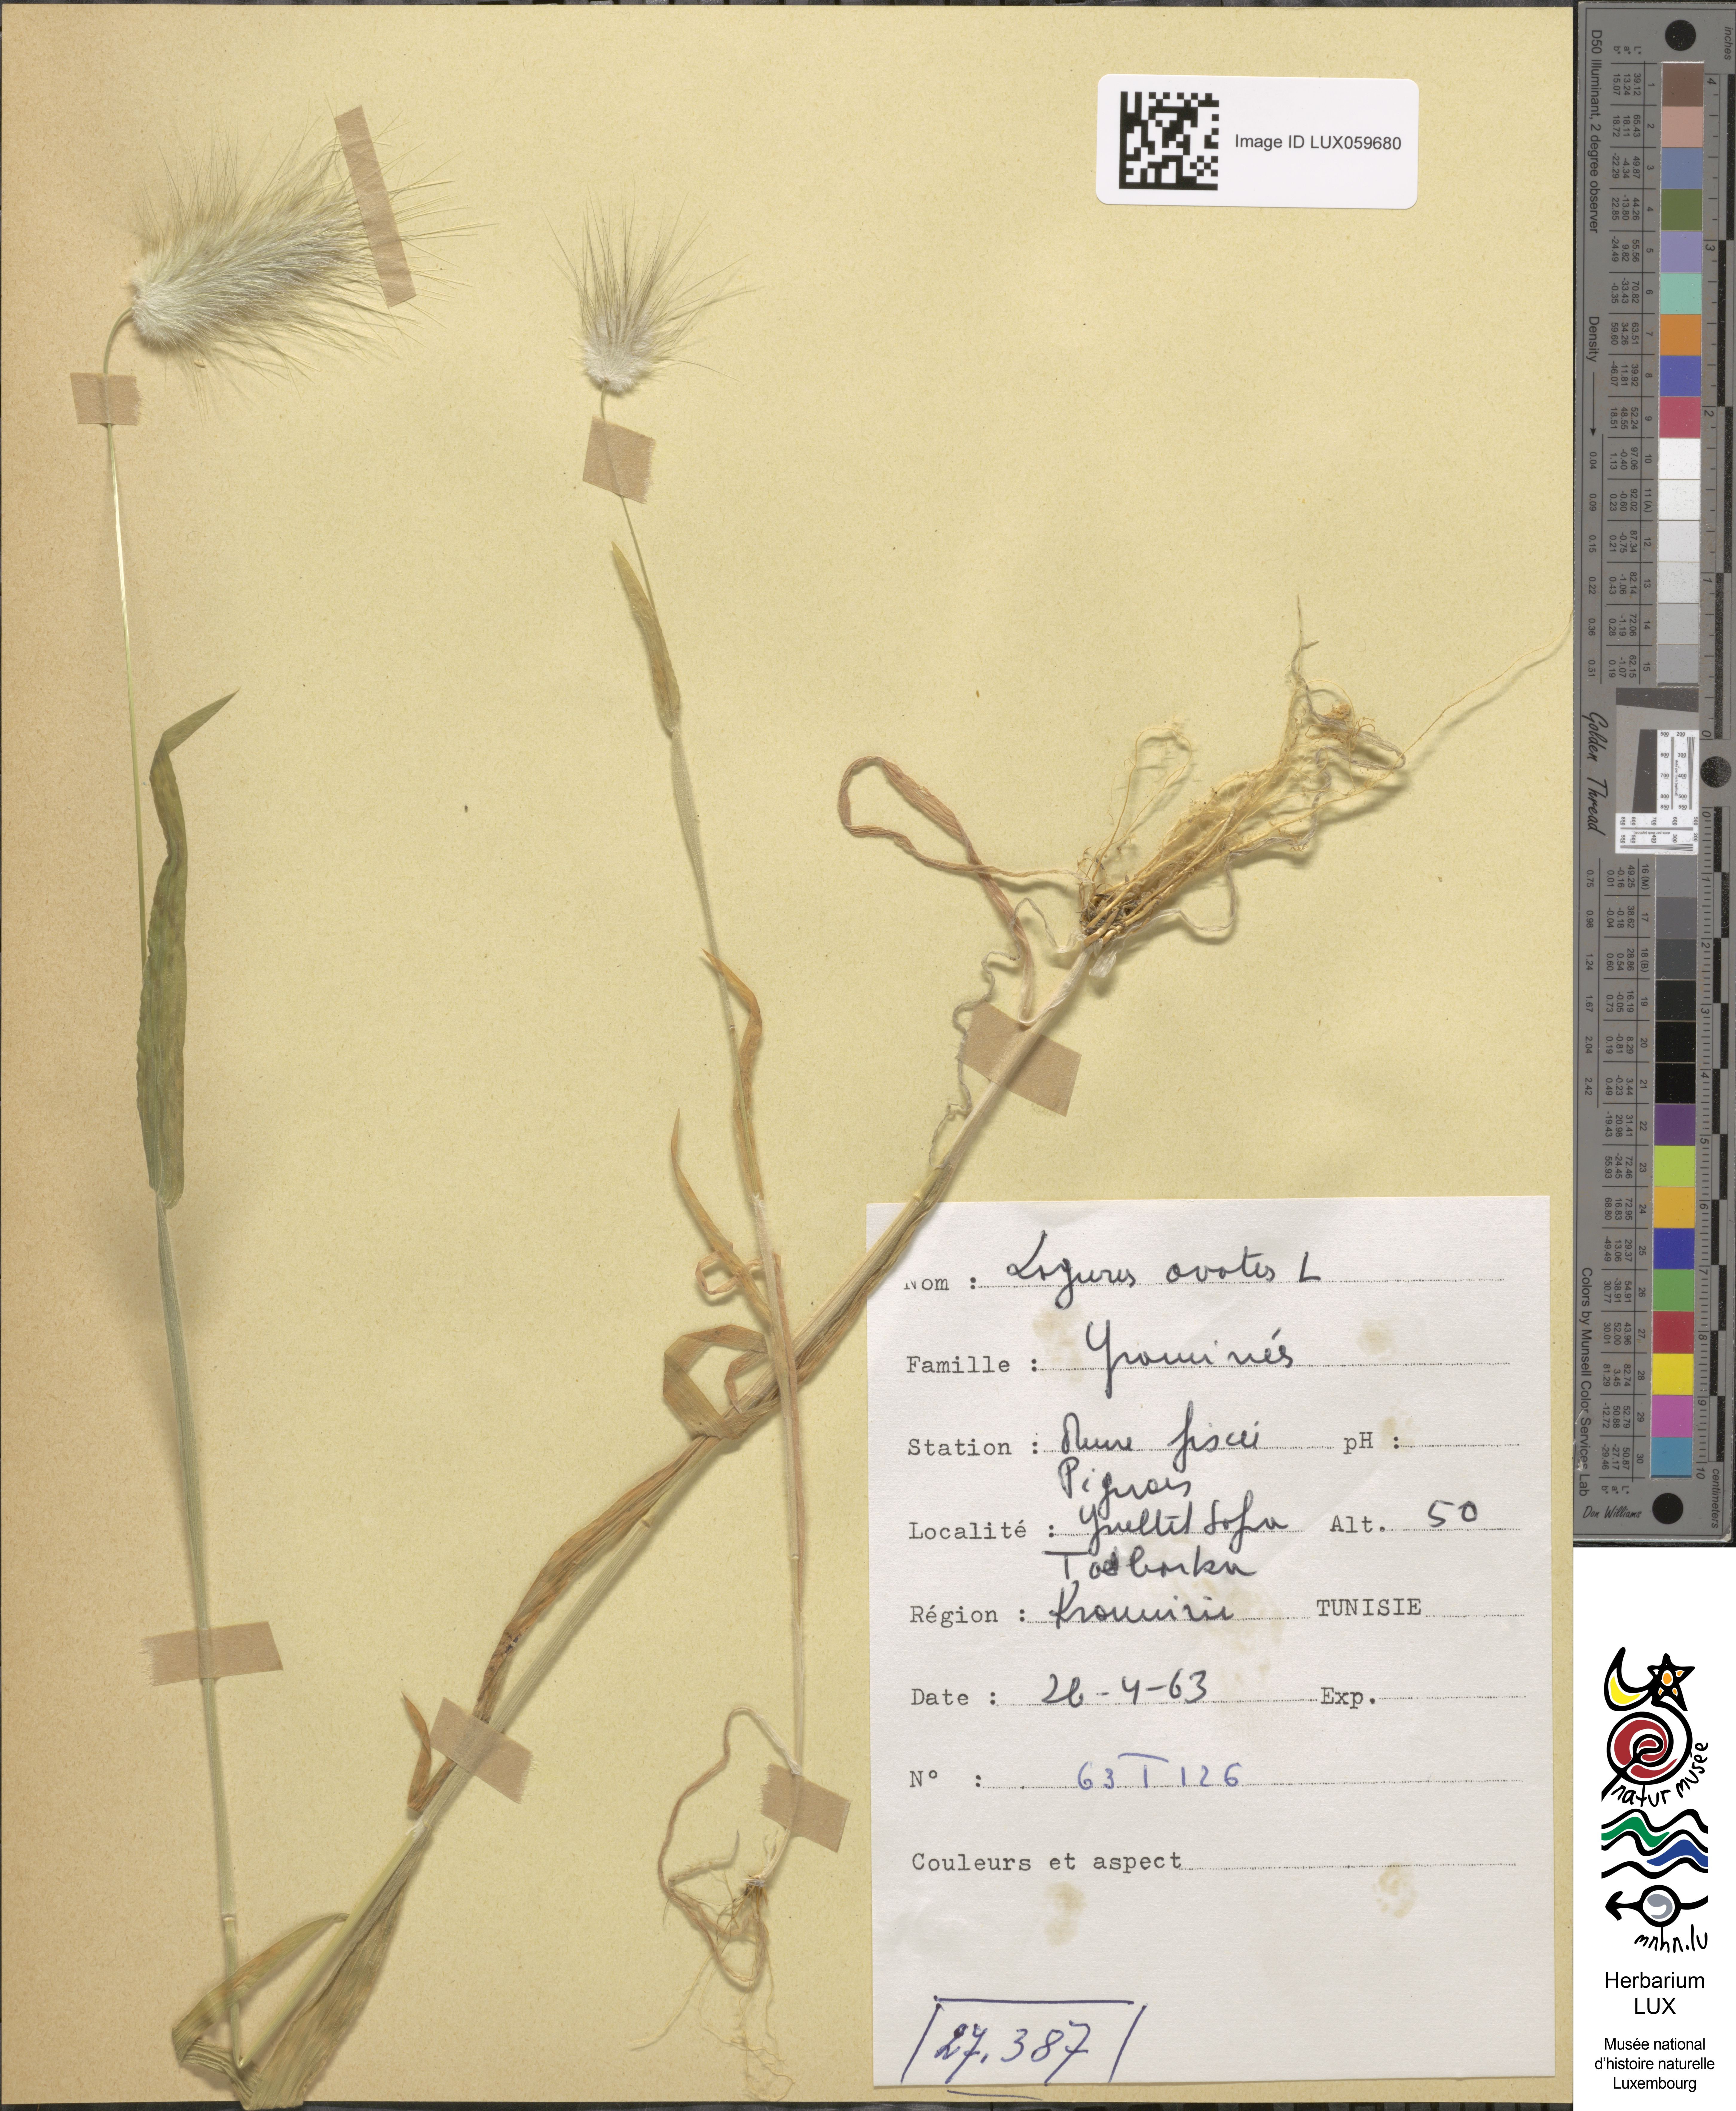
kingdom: Plantae
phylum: Tracheophyta
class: Liliopsida
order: Poales
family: Poaceae
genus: Lagurus
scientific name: Lagurus ovatus
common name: Hare's-tail
